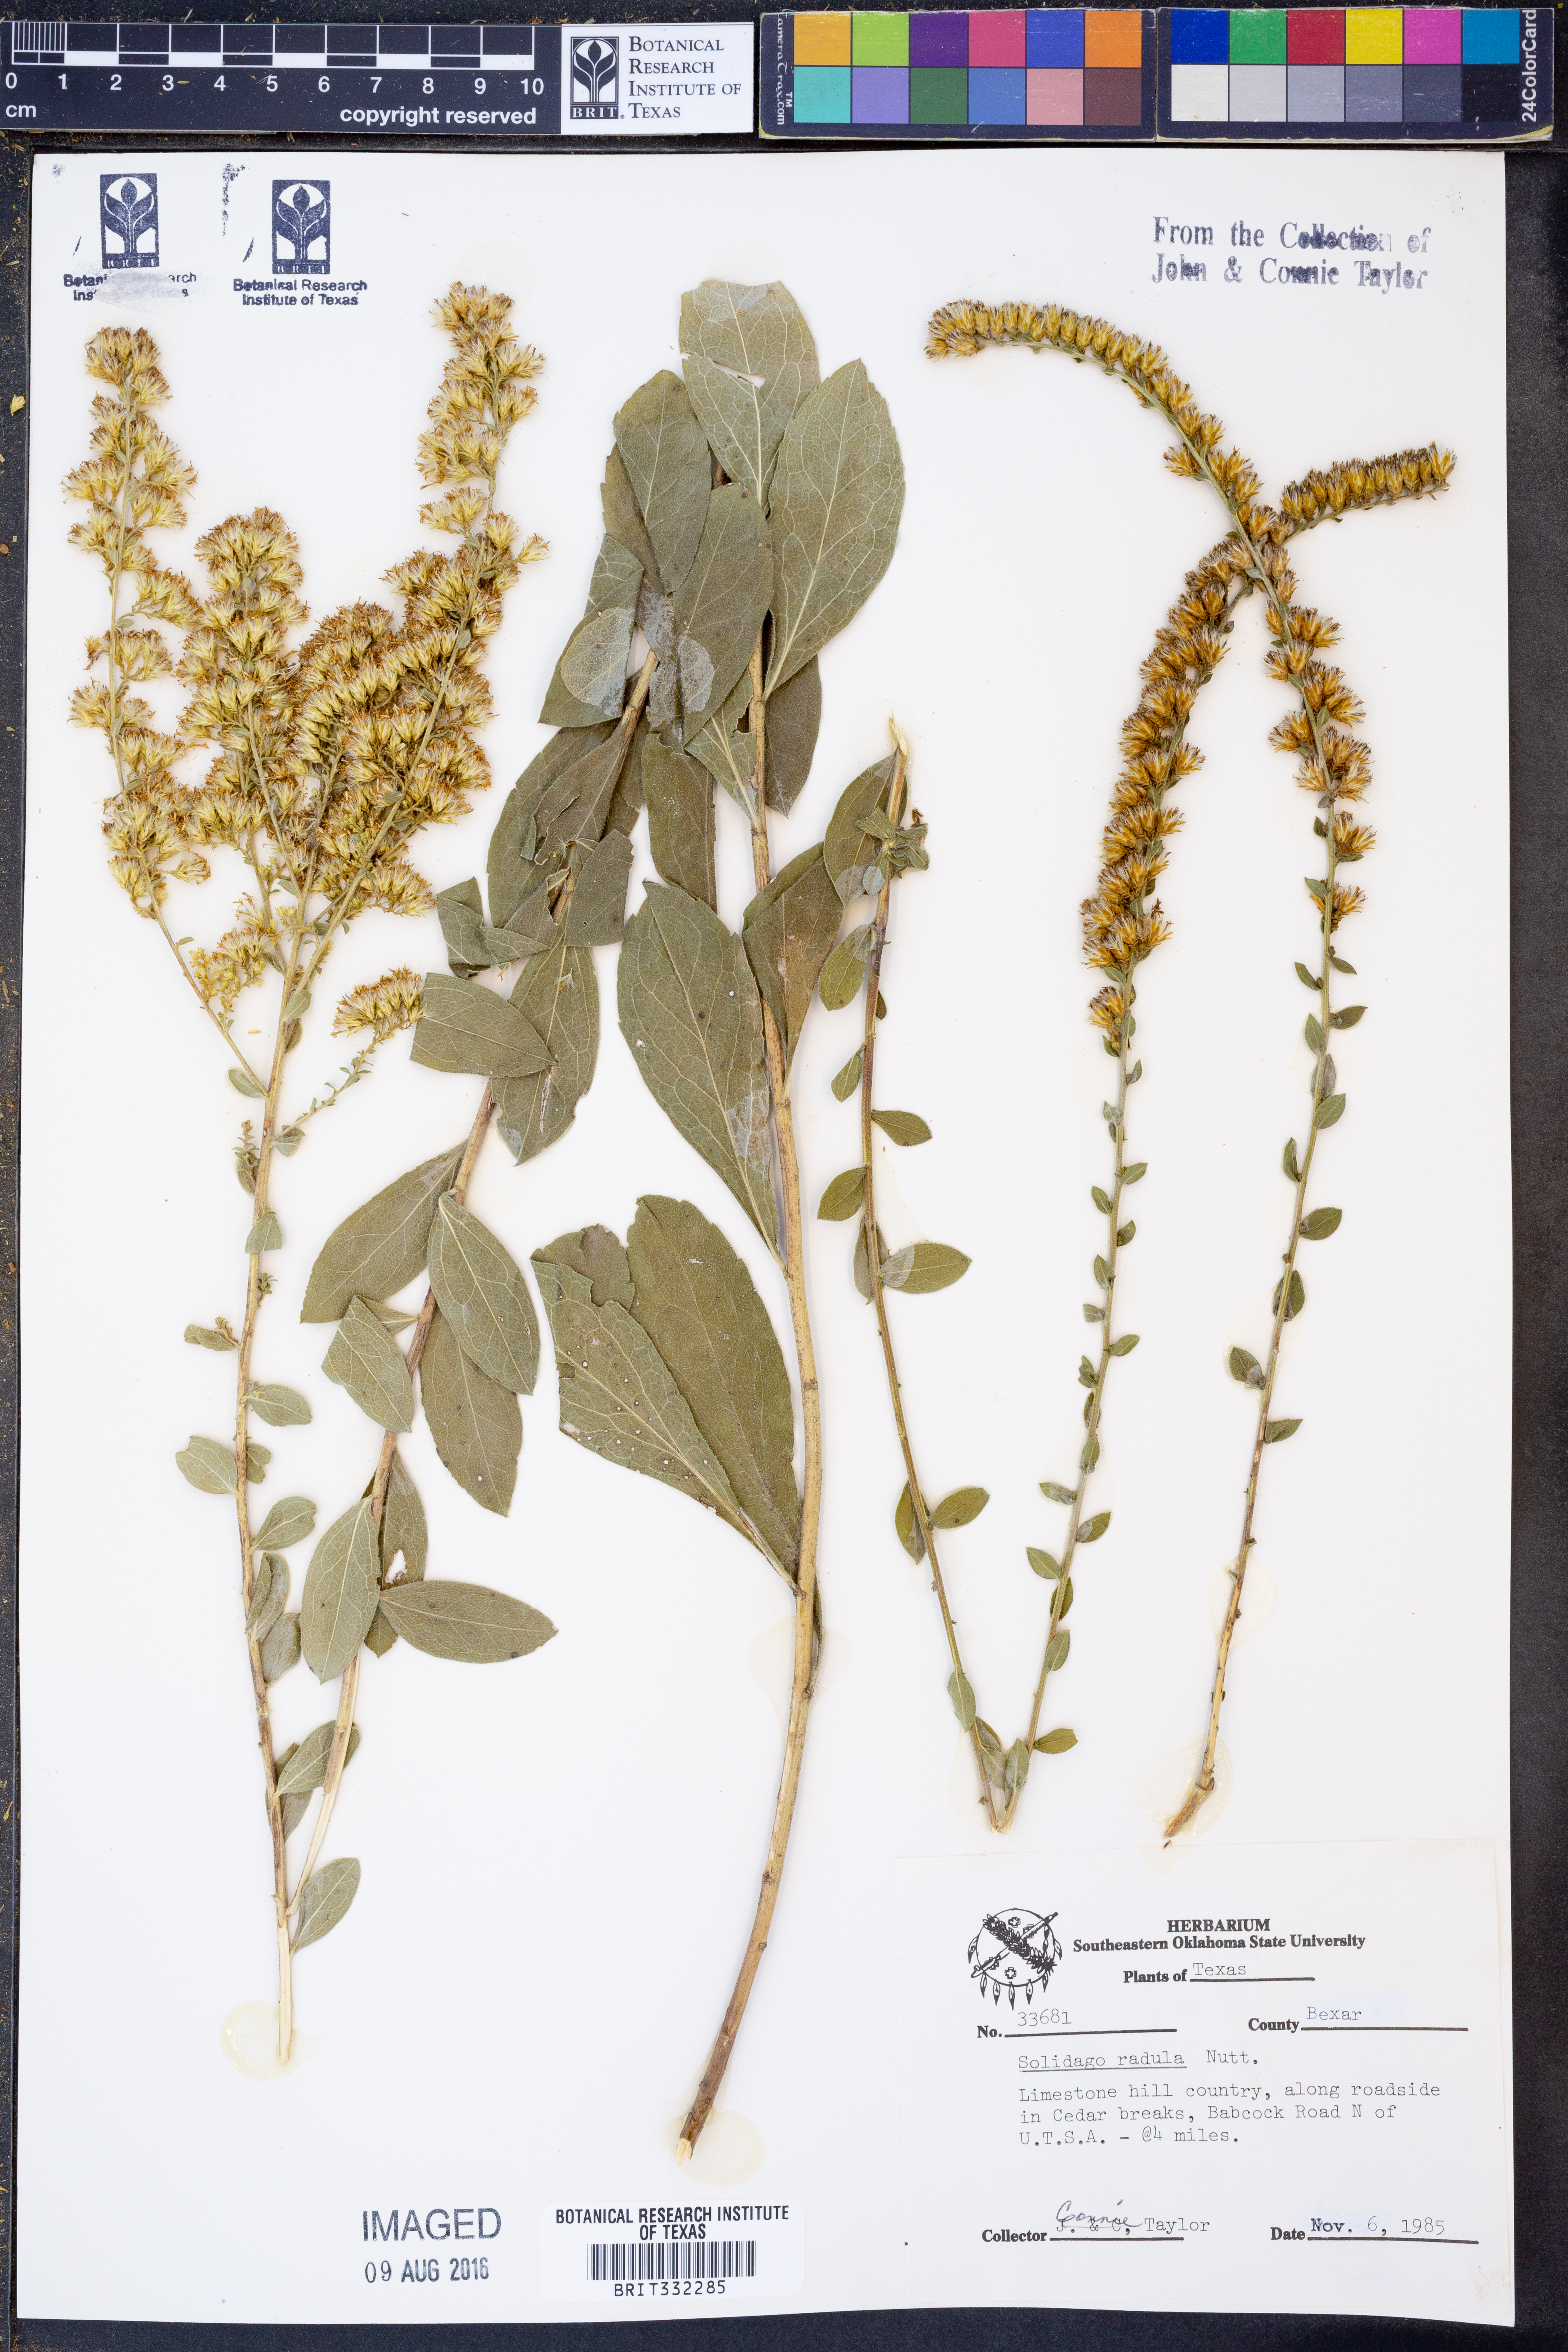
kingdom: Plantae
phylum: Tracheophyta
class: Magnoliopsida
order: Asterales
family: Asteraceae
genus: Solidago
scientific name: Solidago radula
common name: Western rough goldenrod
